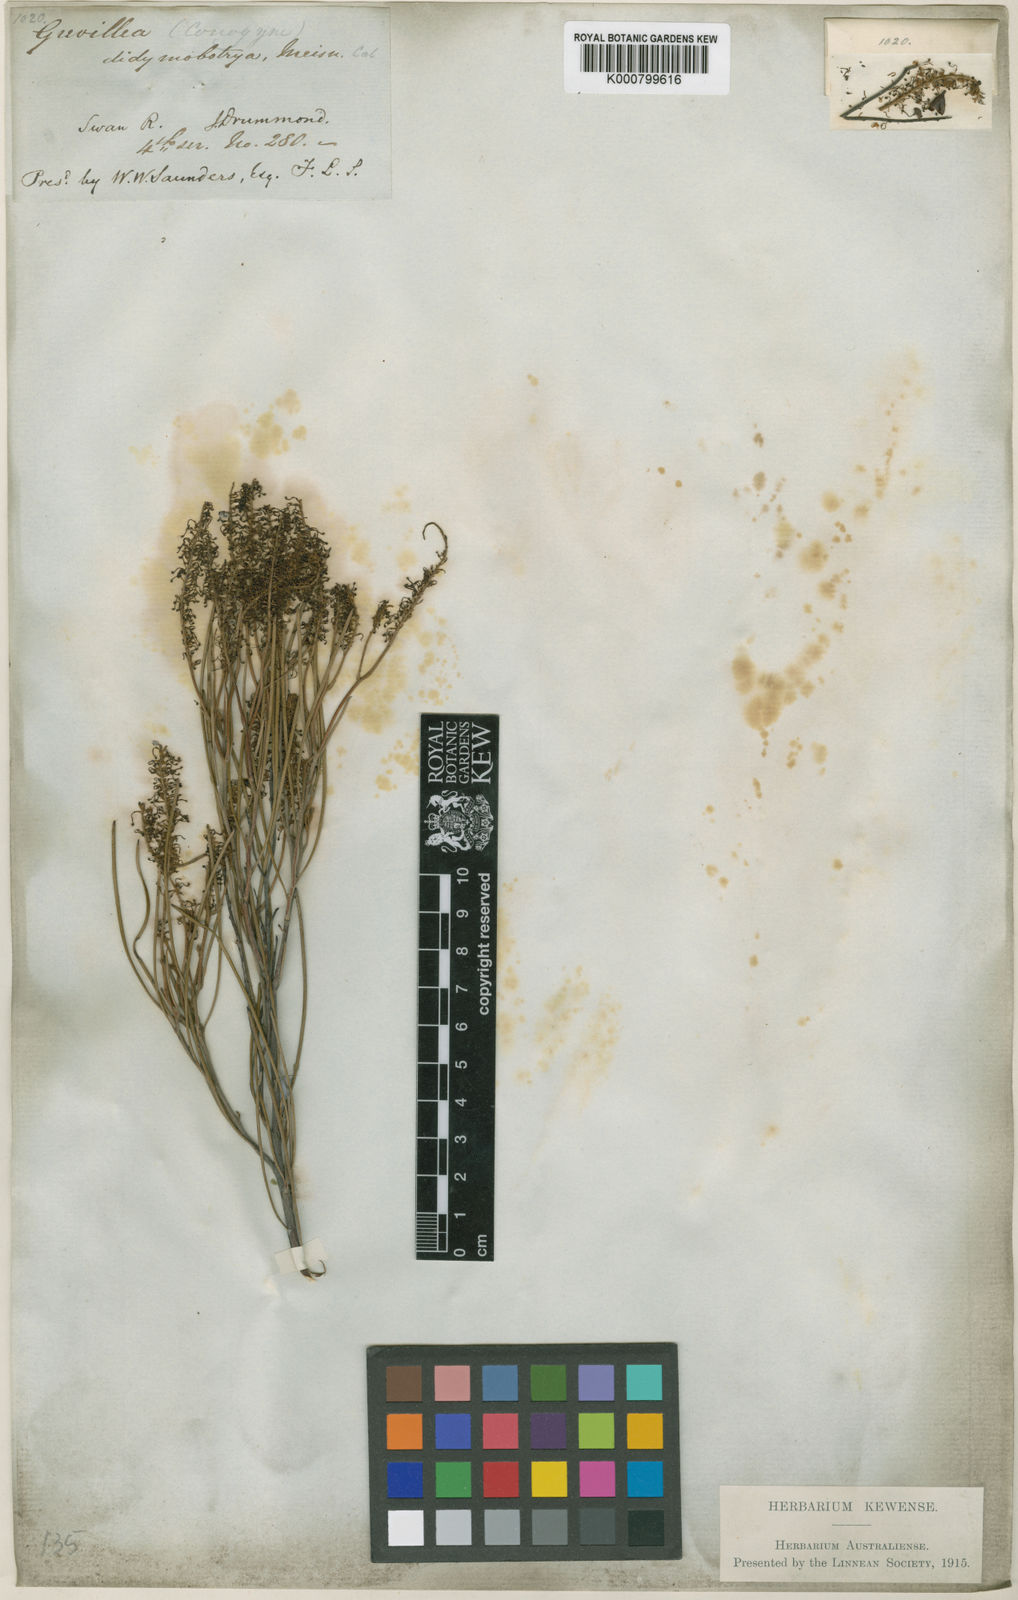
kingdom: Plantae
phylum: Tracheophyta
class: Magnoliopsida
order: Proteales
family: Proteaceae
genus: Grevillea
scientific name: Grevillea
